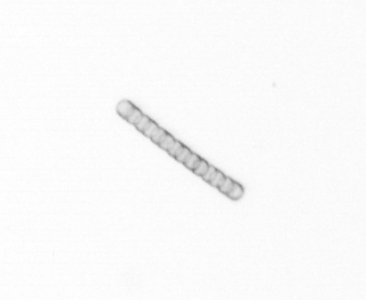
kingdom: Chromista
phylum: Ochrophyta
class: Bacillariophyceae
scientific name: Bacillariophyceae
